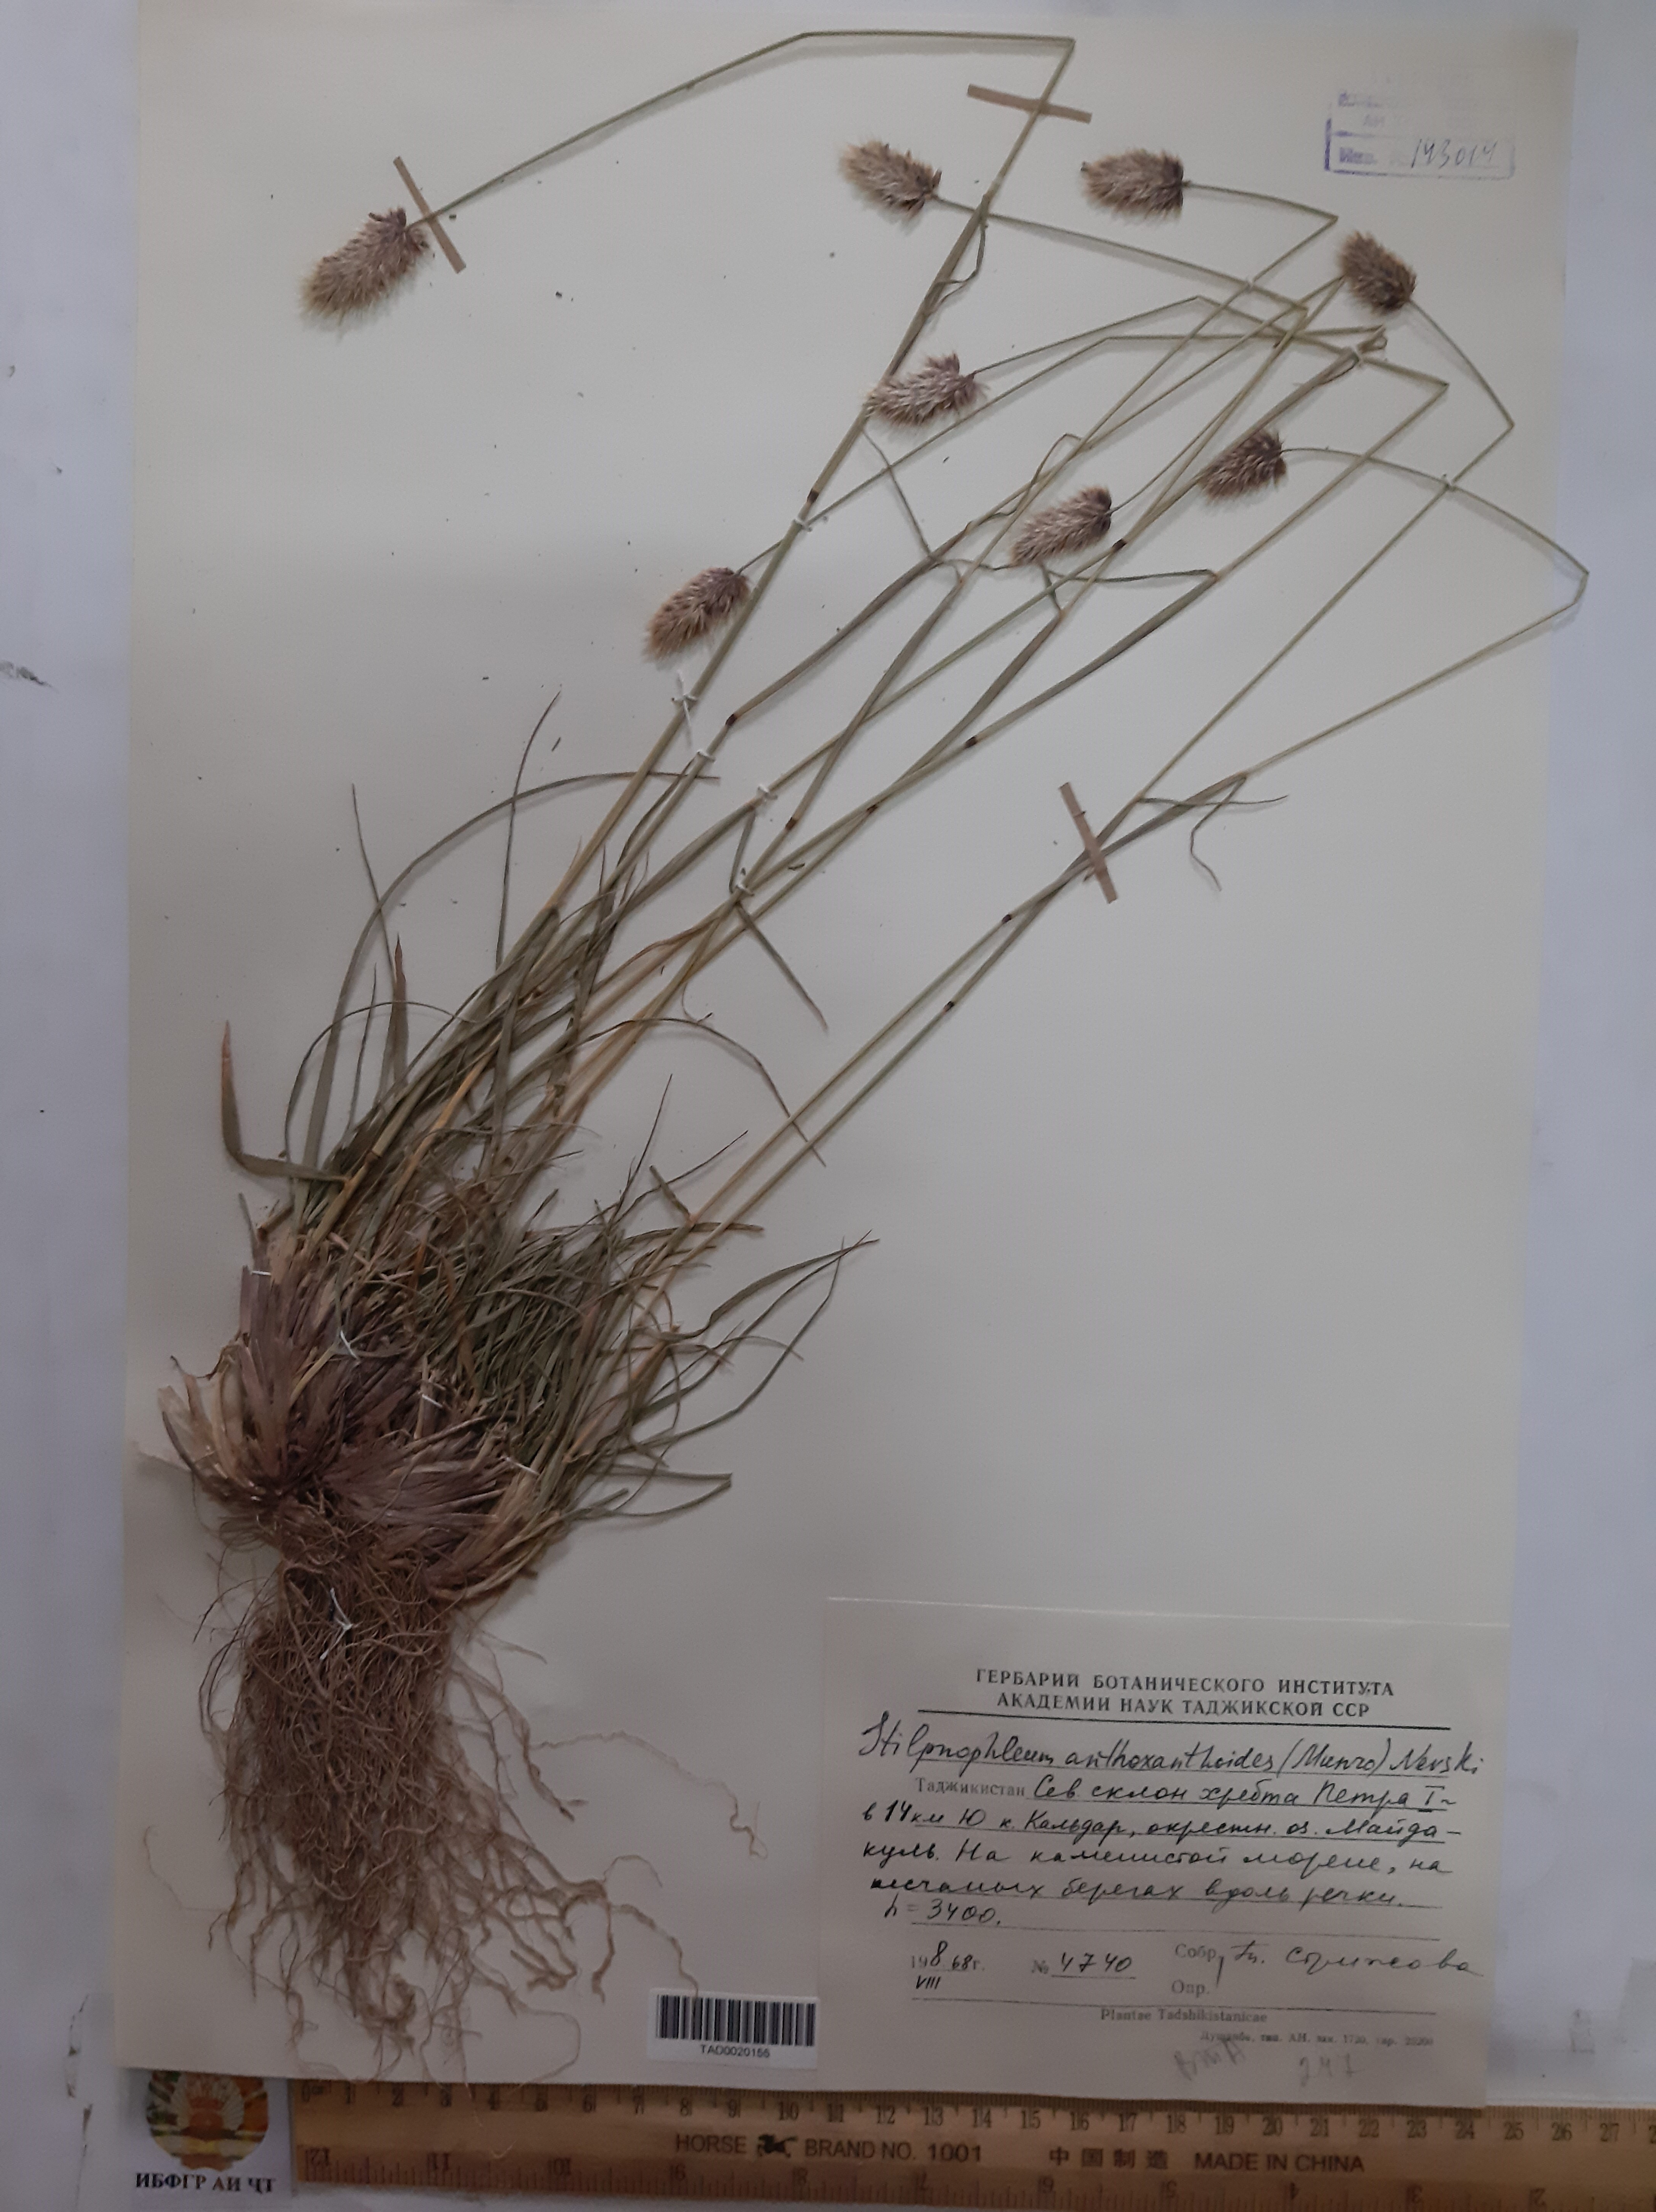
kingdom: Plantae
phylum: Tracheophyta
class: Liliopsida
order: Poales
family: Poaceae
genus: Calamagrostis
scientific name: Calamagrostis anthoxanthoides
